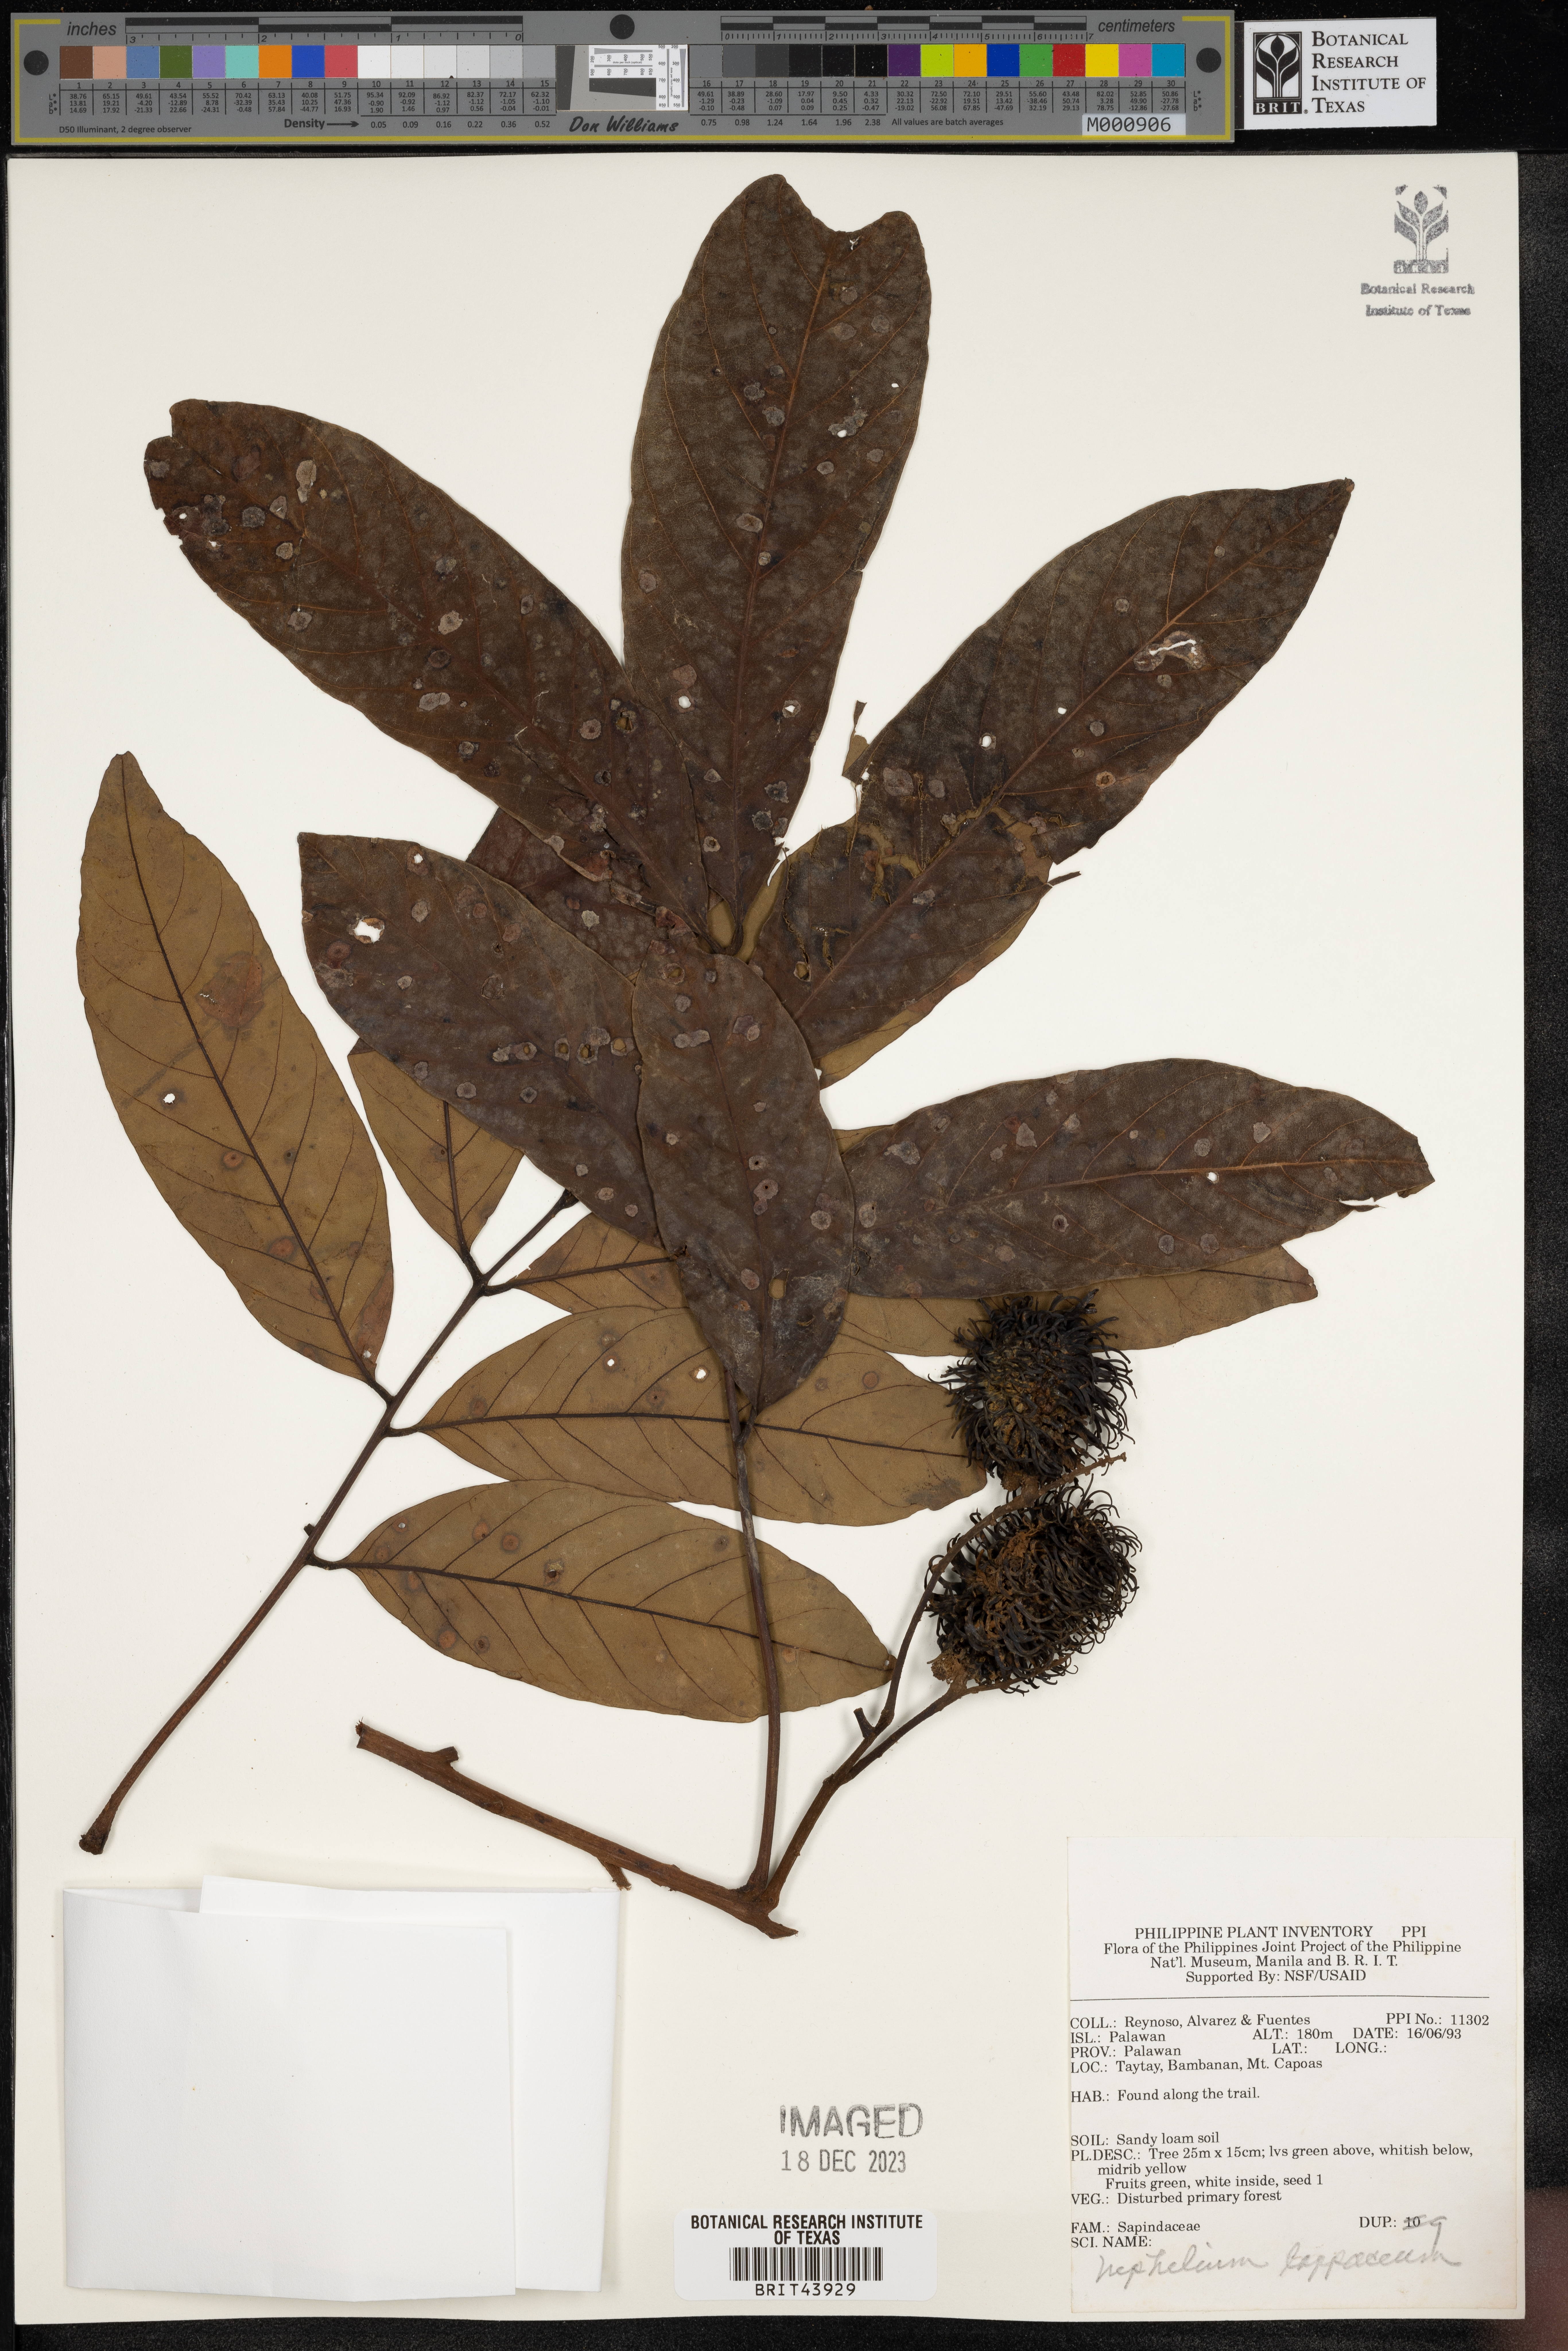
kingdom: Plantae
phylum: Tracheophyta
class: Magnoliopsida
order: Sapindales
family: Sapindaceae
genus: Nephelium
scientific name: Nephelium lappaceum
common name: Rambutan
